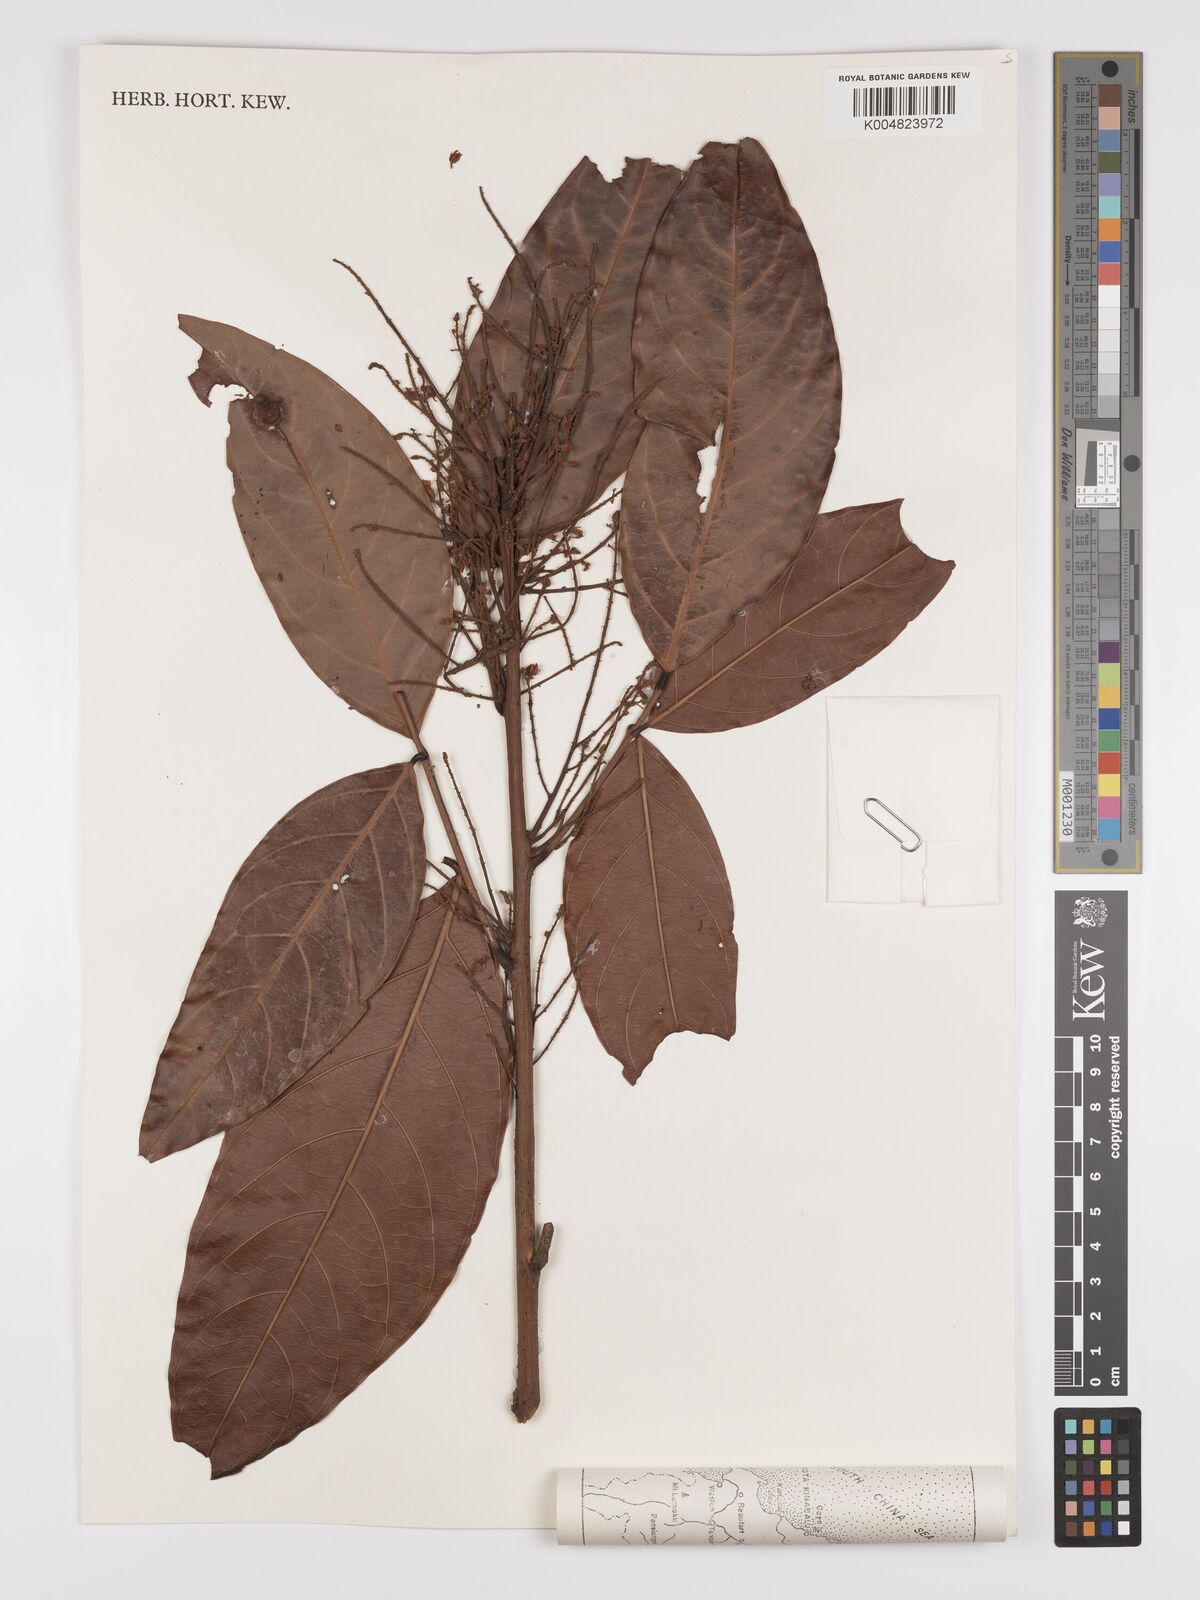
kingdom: Plantae
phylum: Tracheophyta
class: Magnoliopsida
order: Oxalidales
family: Connaraceae
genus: Connarus
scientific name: Connarus grandis
